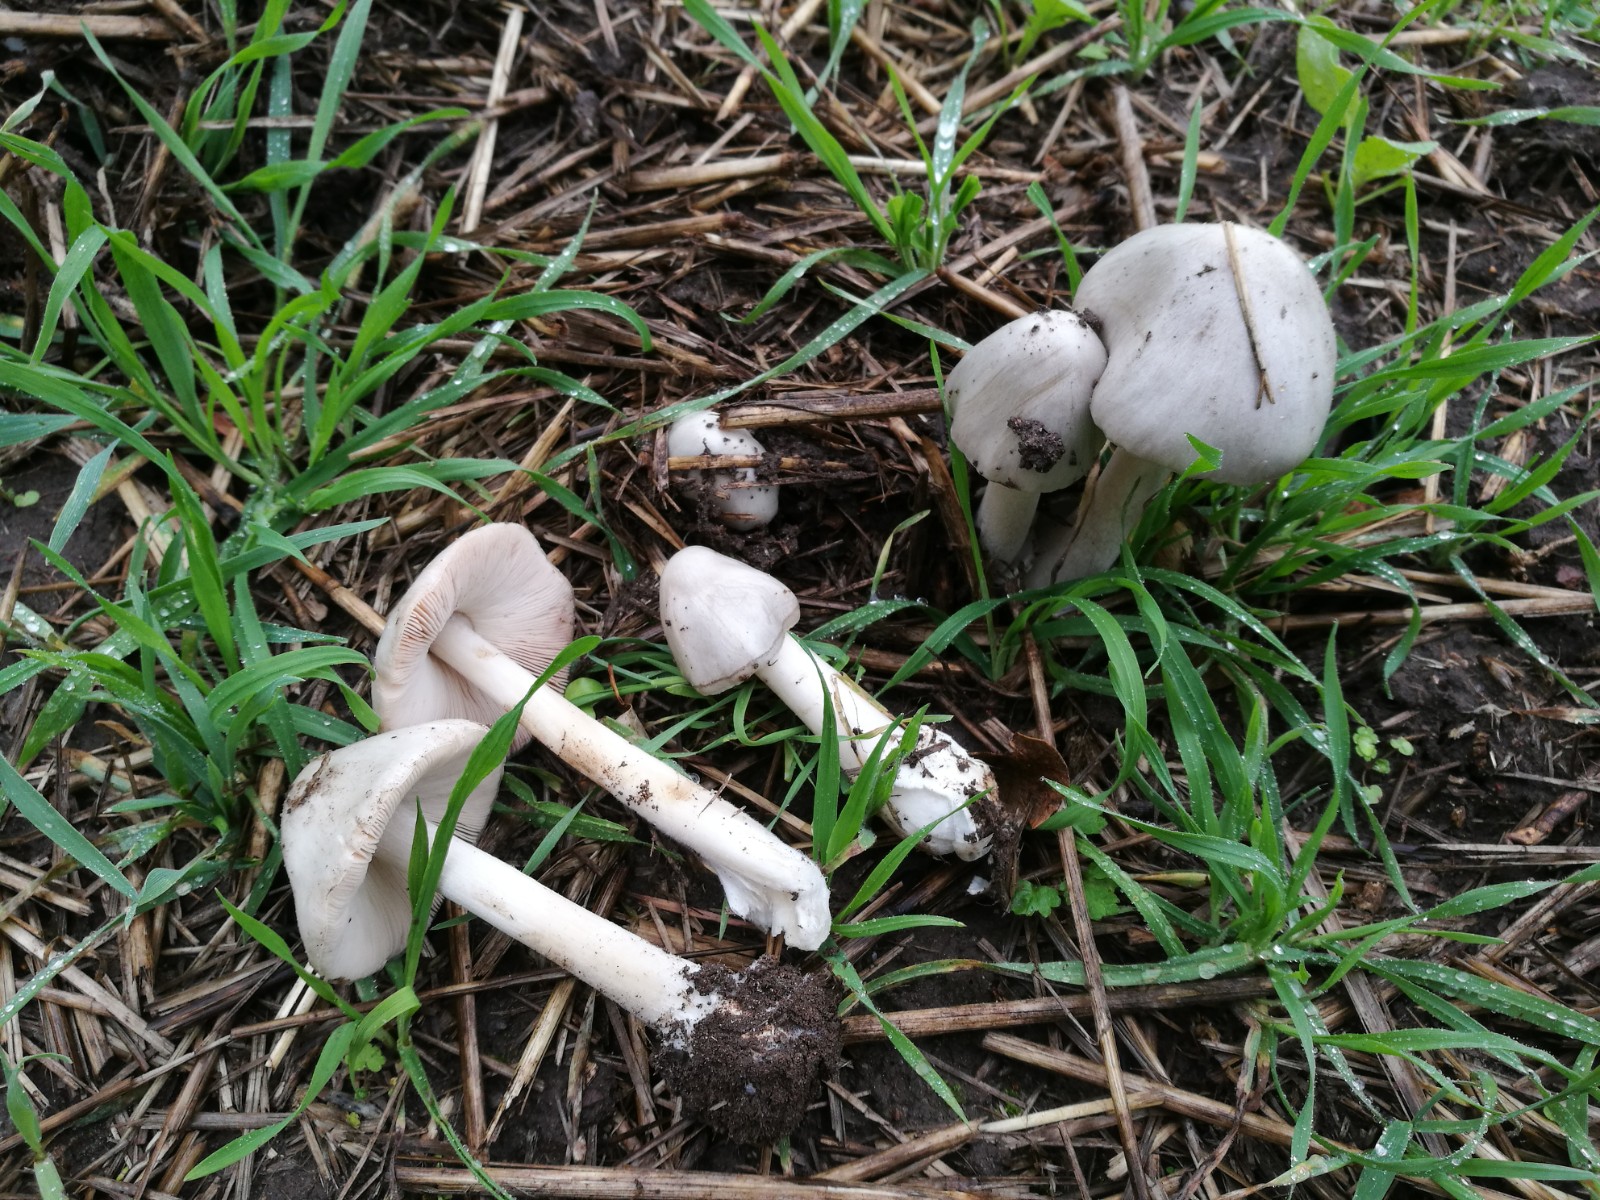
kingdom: Fungi
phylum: Basidiomycota
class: Agaricomycetes
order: Agaricales
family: Pluteaceae
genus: Volvopluteus
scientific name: Volvopluteus gloiocephalus
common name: høj posesvamp
